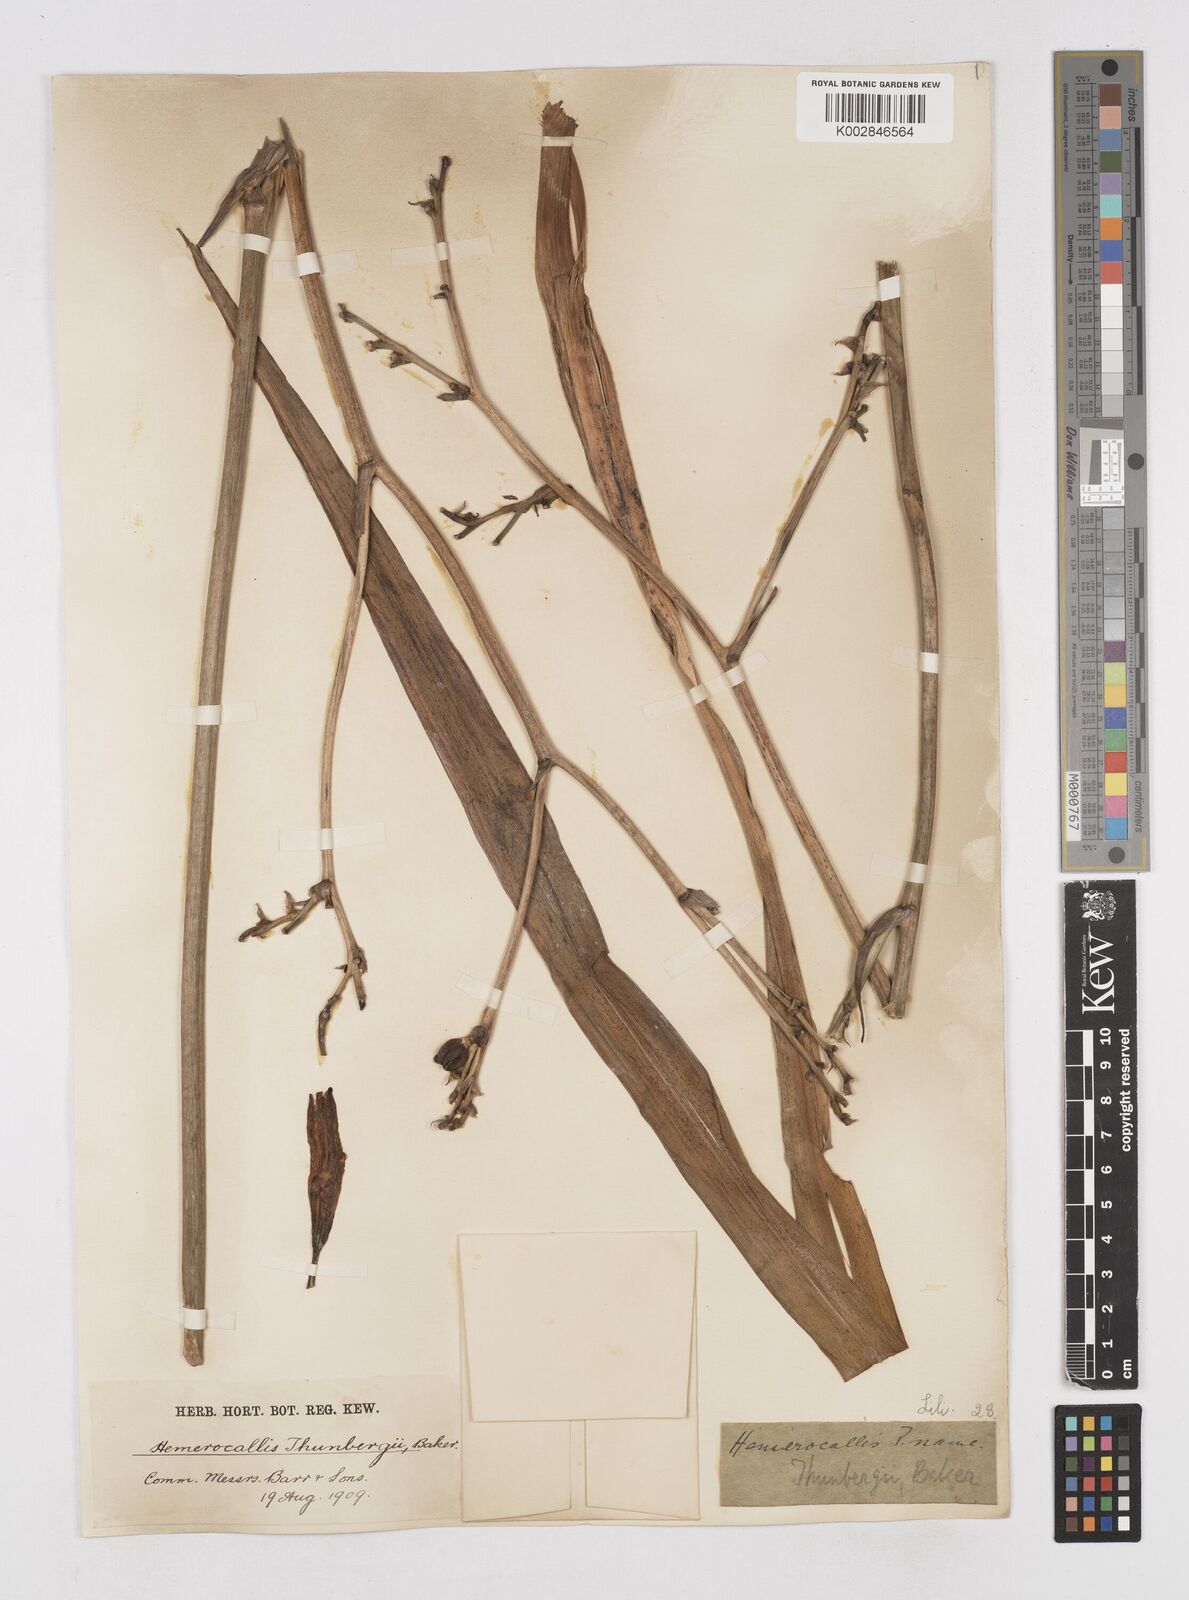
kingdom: Plantae
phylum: Tracheophyta
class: Liliopsida
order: Asparagales
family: Asphodelaceae
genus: Hemerocallis
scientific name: Hemerocallis thunbergii
